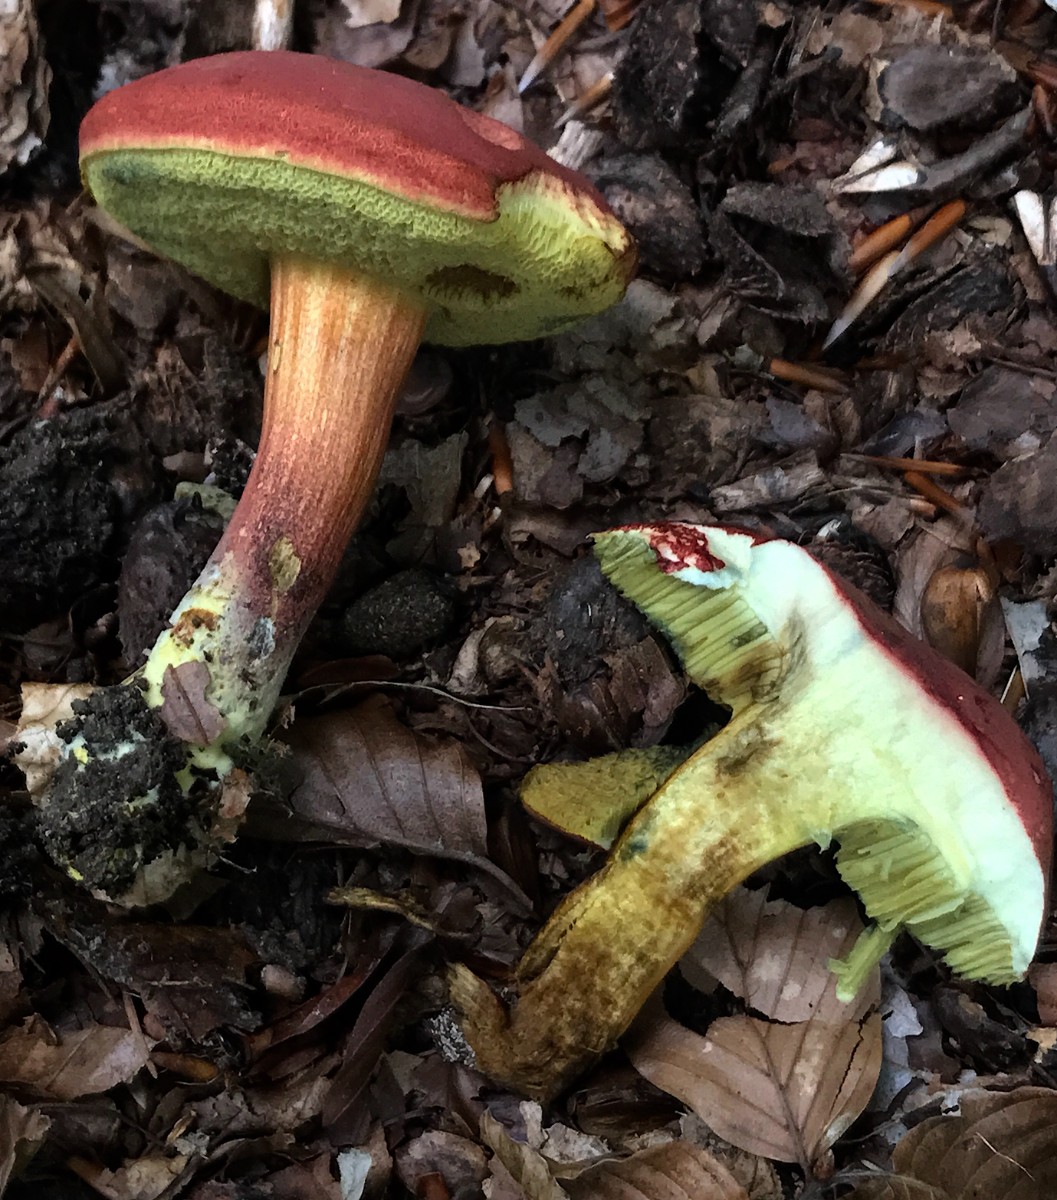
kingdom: Fungi
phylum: Basidiomycota
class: Agaricomycetes
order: Boletales
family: Boletaceae
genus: Hortiboletus
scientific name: Hortiboletus rubellus
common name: blodrød rørhat
